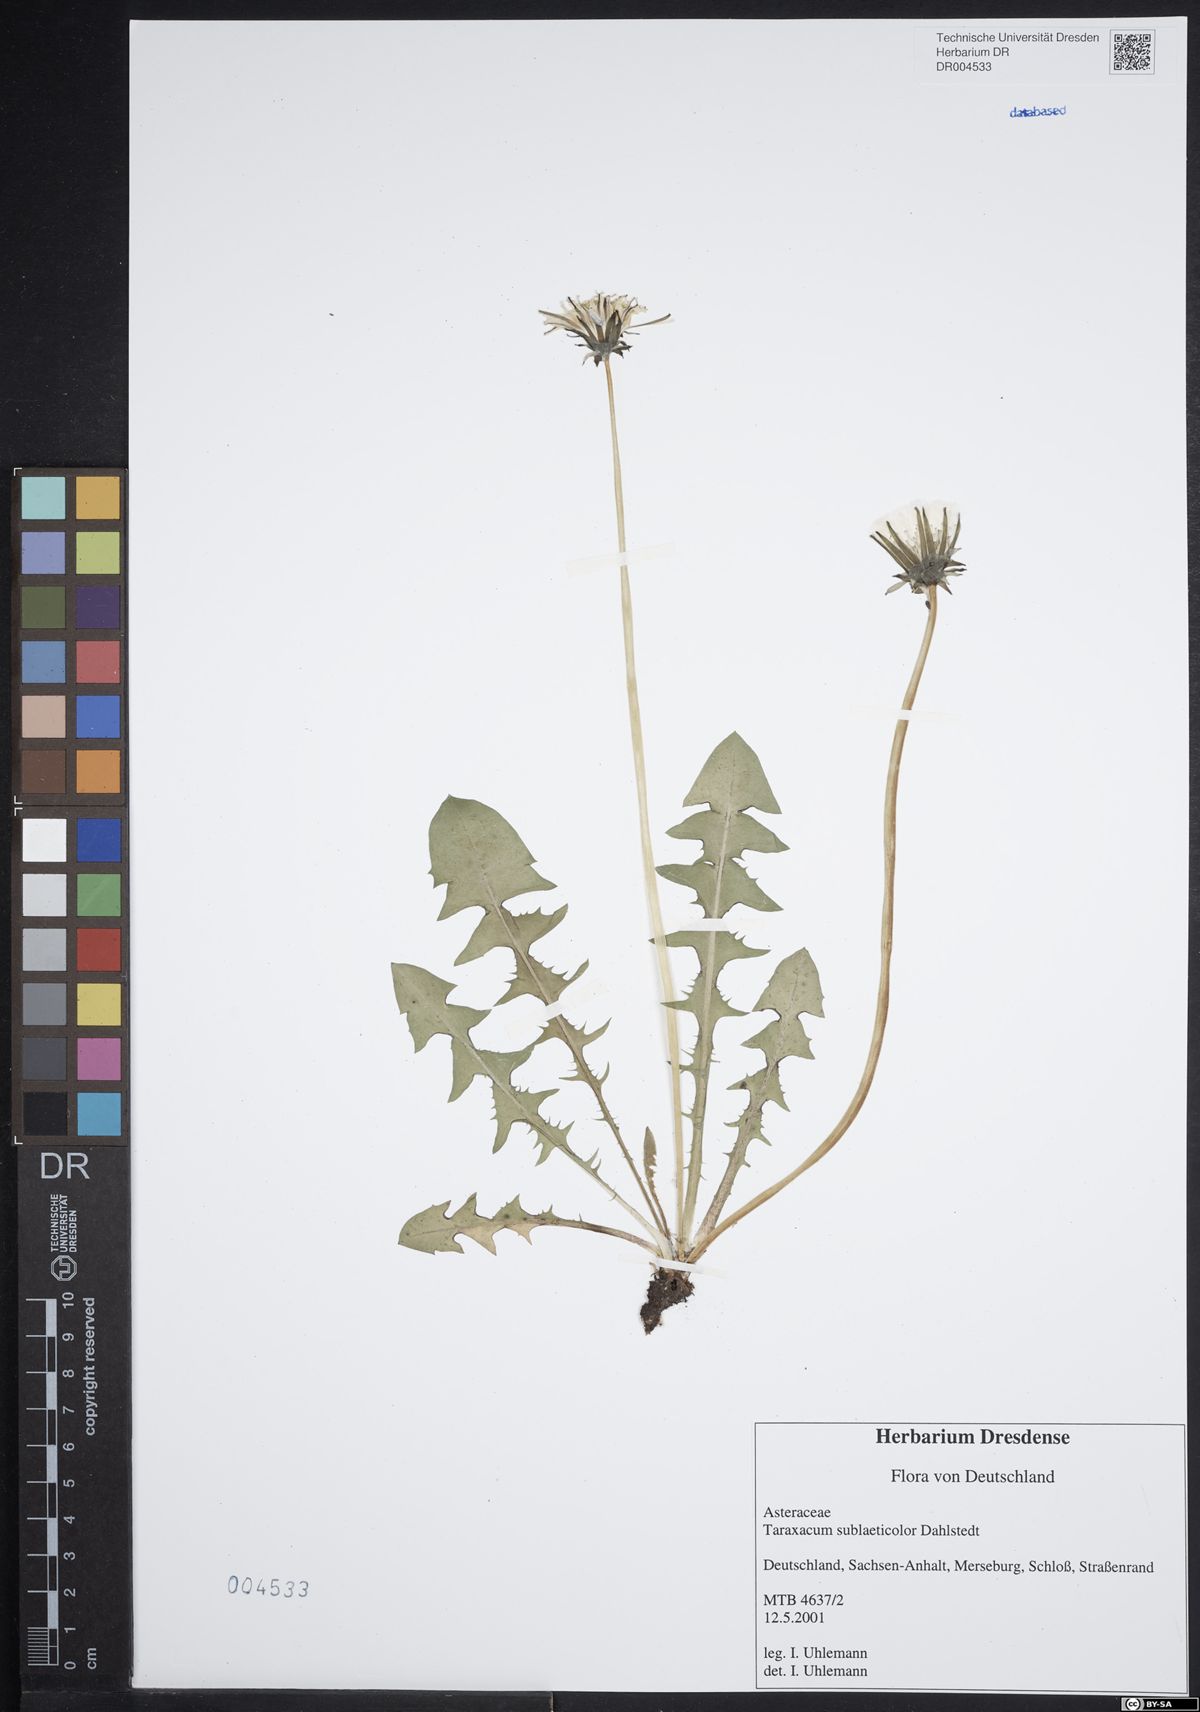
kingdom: Plantae
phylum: Tracheophyta
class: Magnoliopsida
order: Asterales
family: Asteraceae
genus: Taraxacum
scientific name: Taraxacum sublaeticolor
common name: Small-headed dandelion
